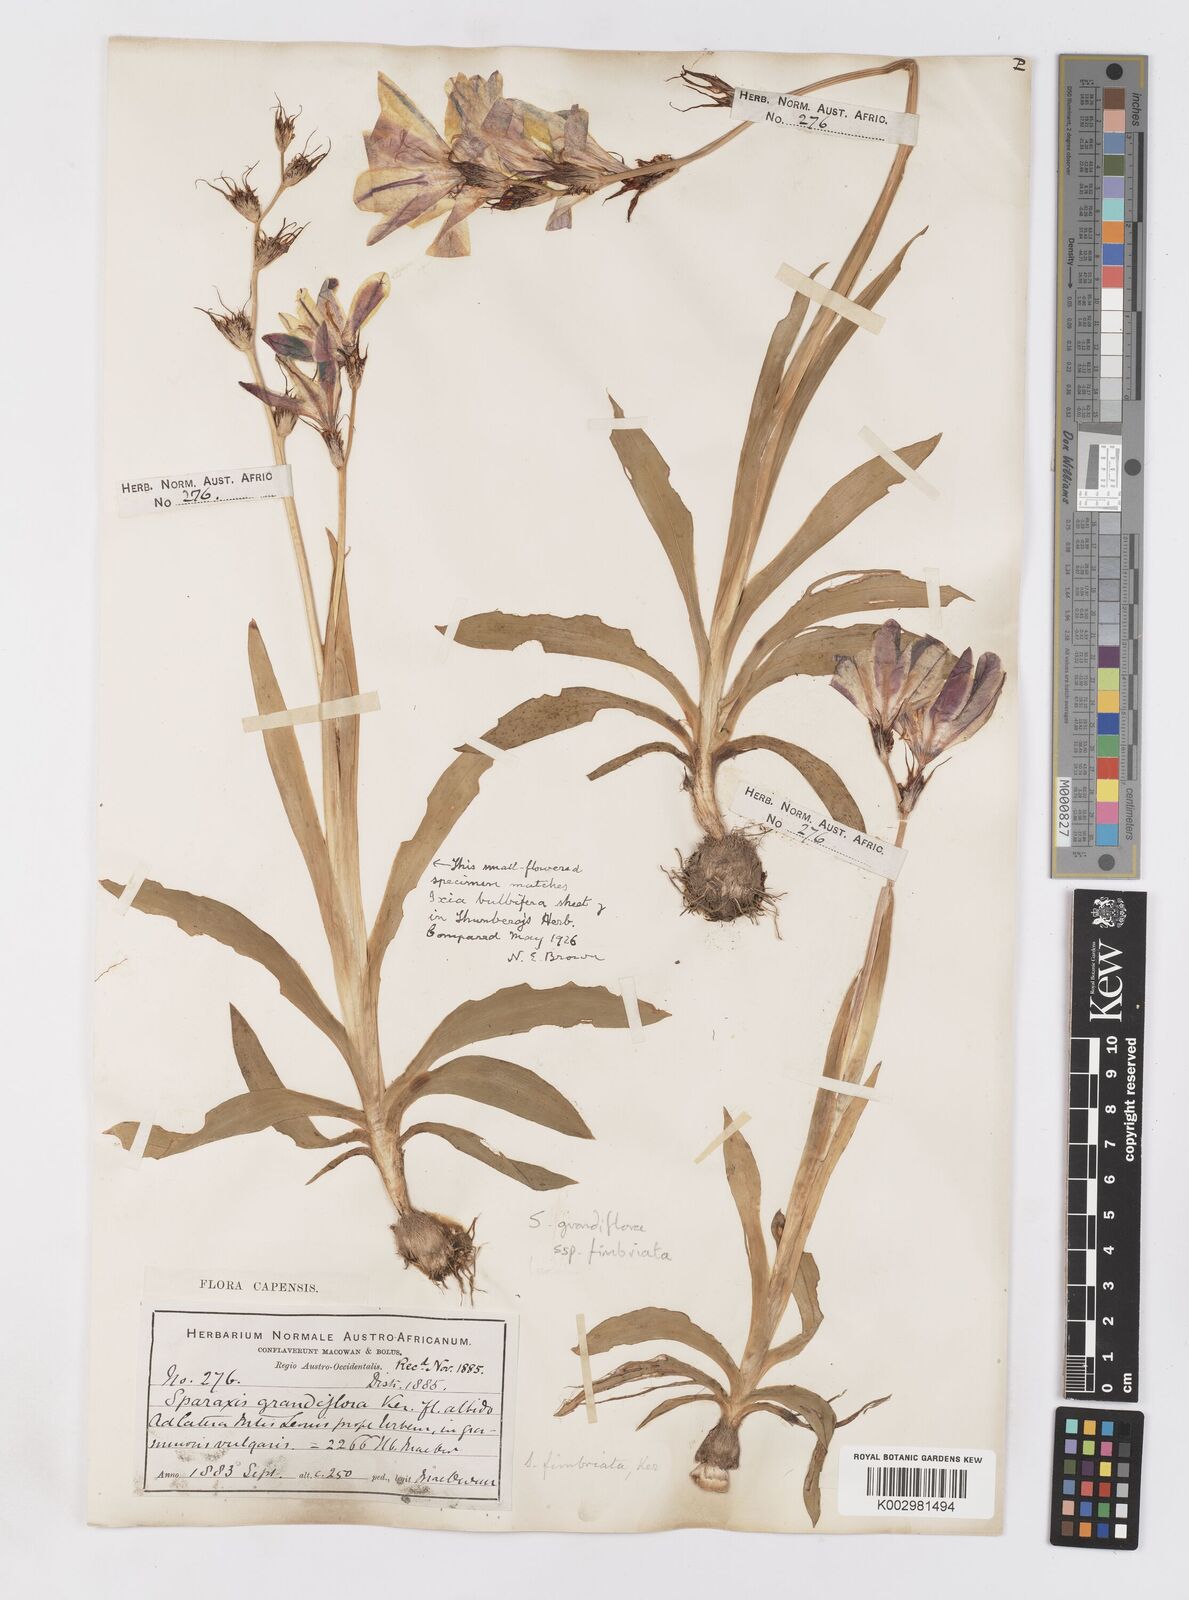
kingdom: Plantae
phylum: Tracheophyta
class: Liliopsida
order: Asparagales
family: Iridaceae
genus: Sparaxis
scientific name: Sparaxis grandiflora
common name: Plain harlequin-flower
